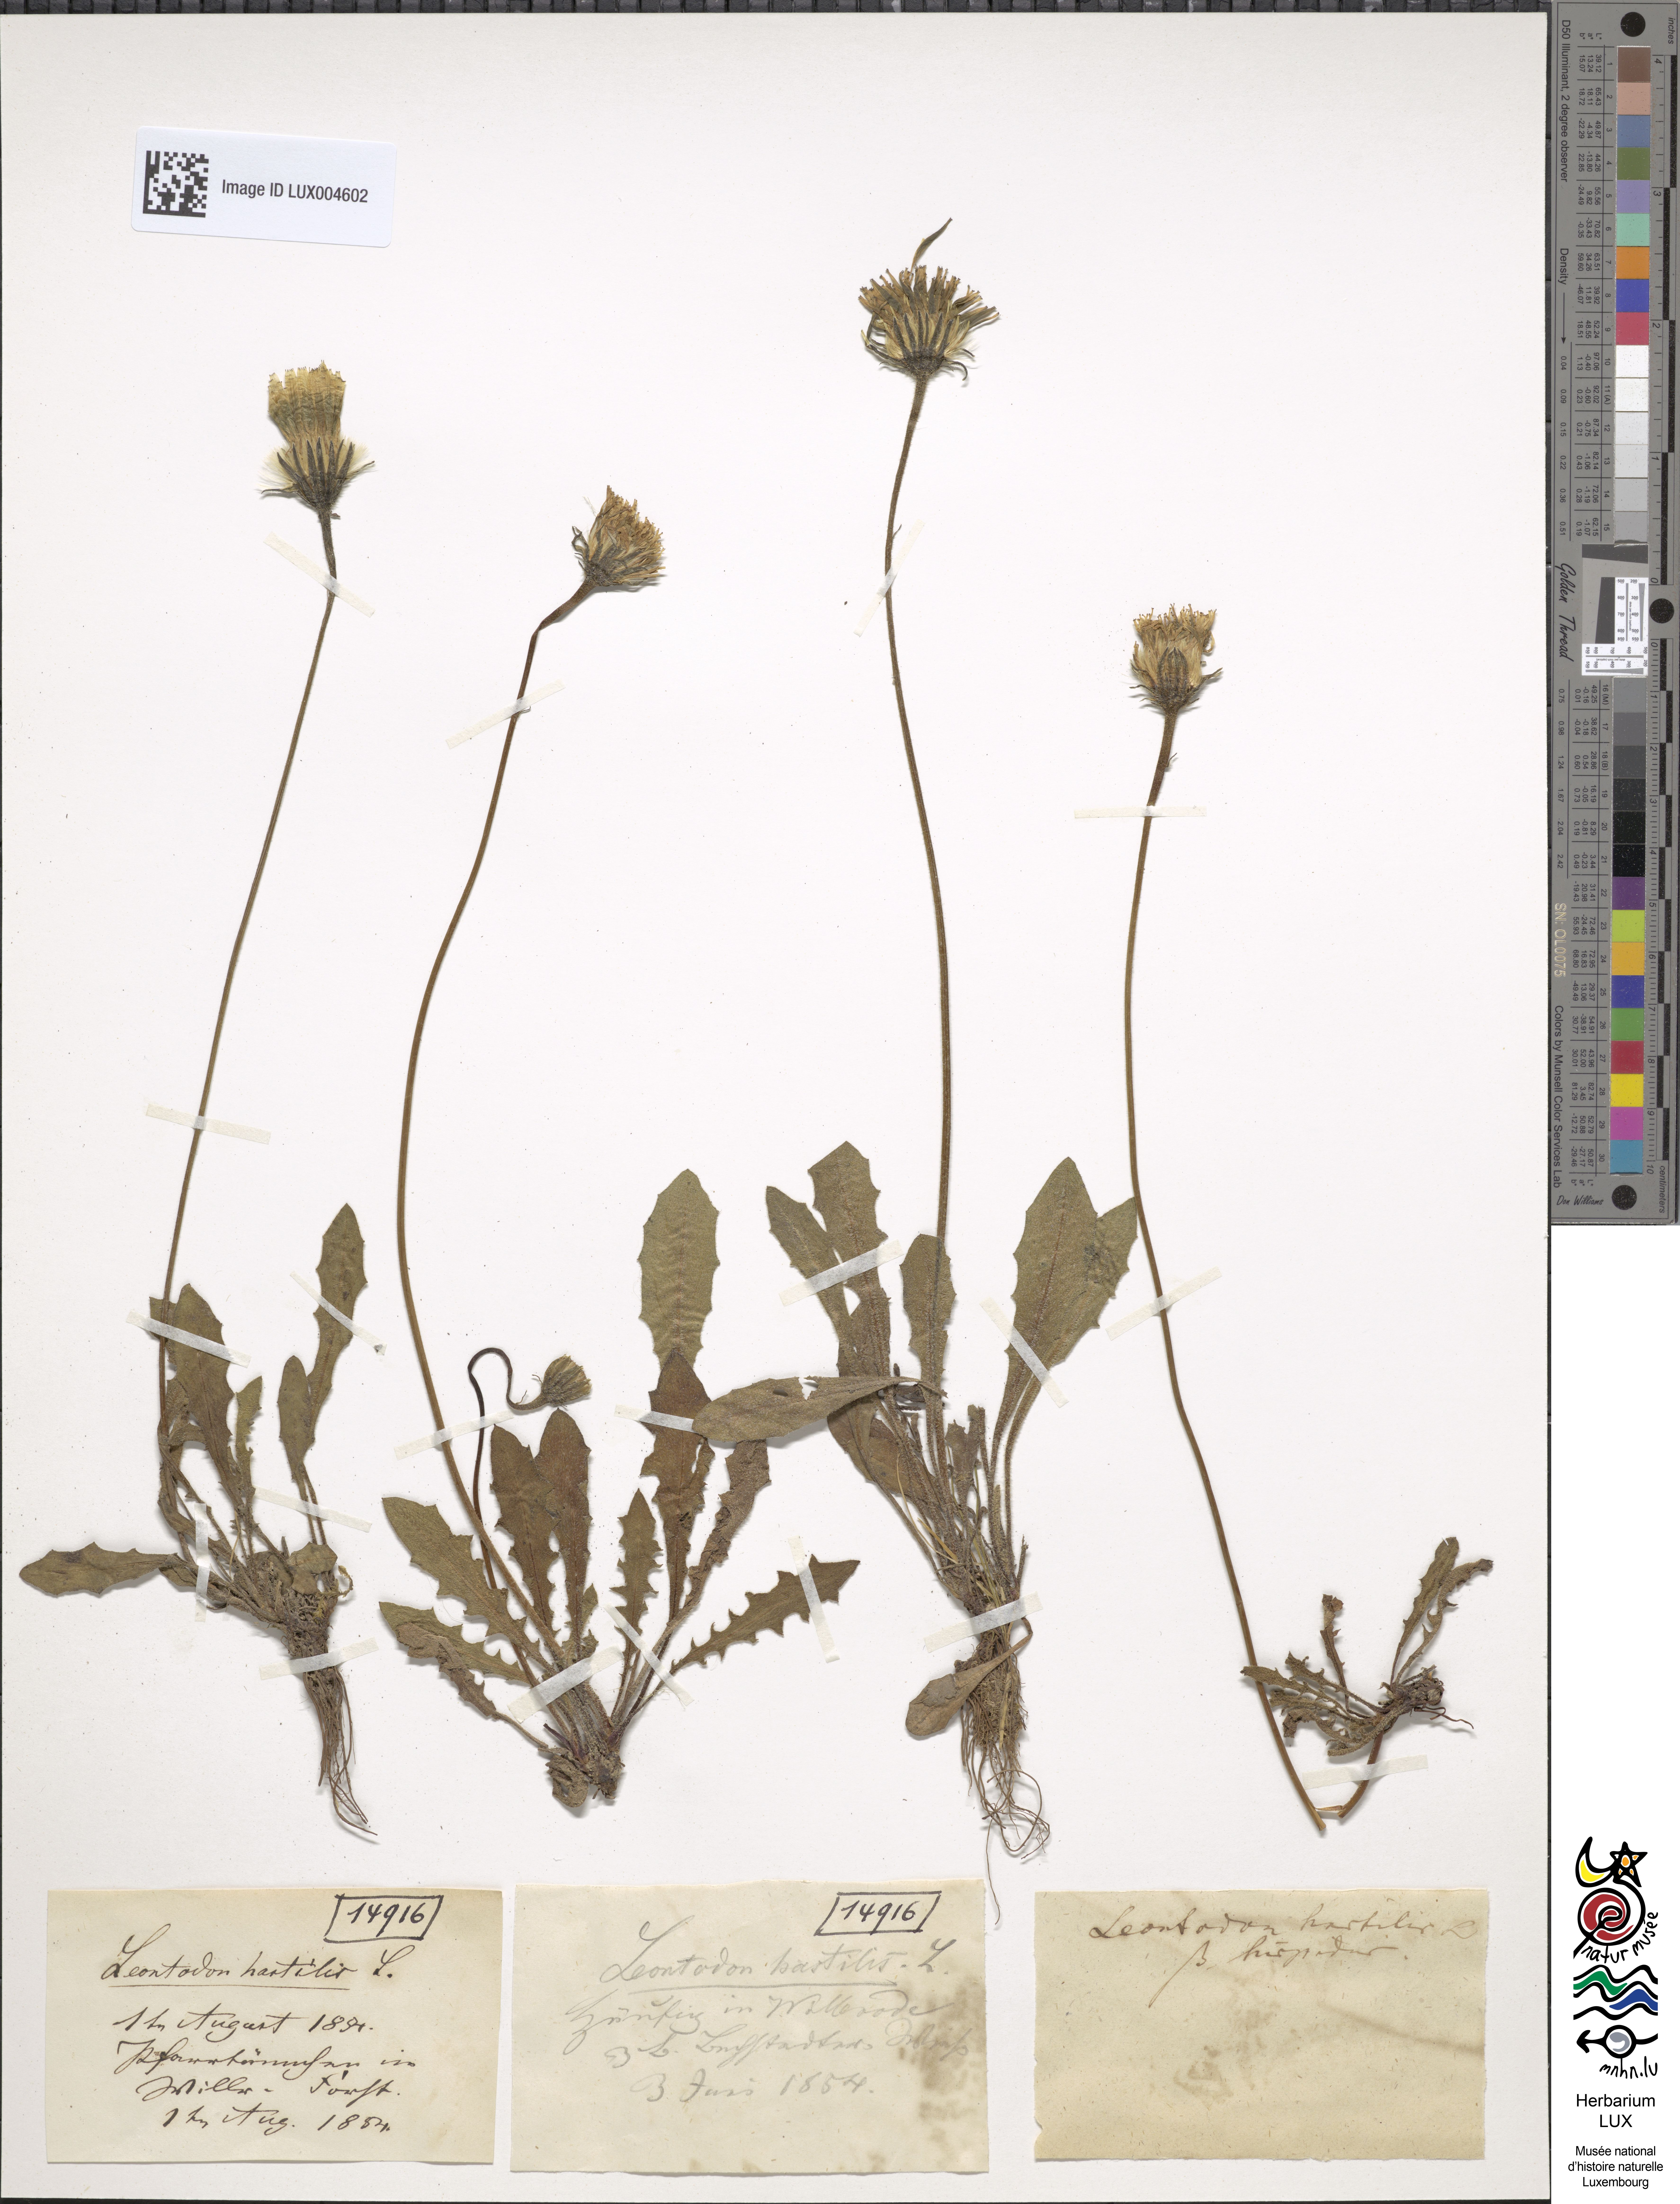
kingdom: Plantae
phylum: Tracheophyta
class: Magnoliopsida
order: Asterales
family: Asteraceae
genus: Leontodon
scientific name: Leontodon hispidus
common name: Rough hawkbit
